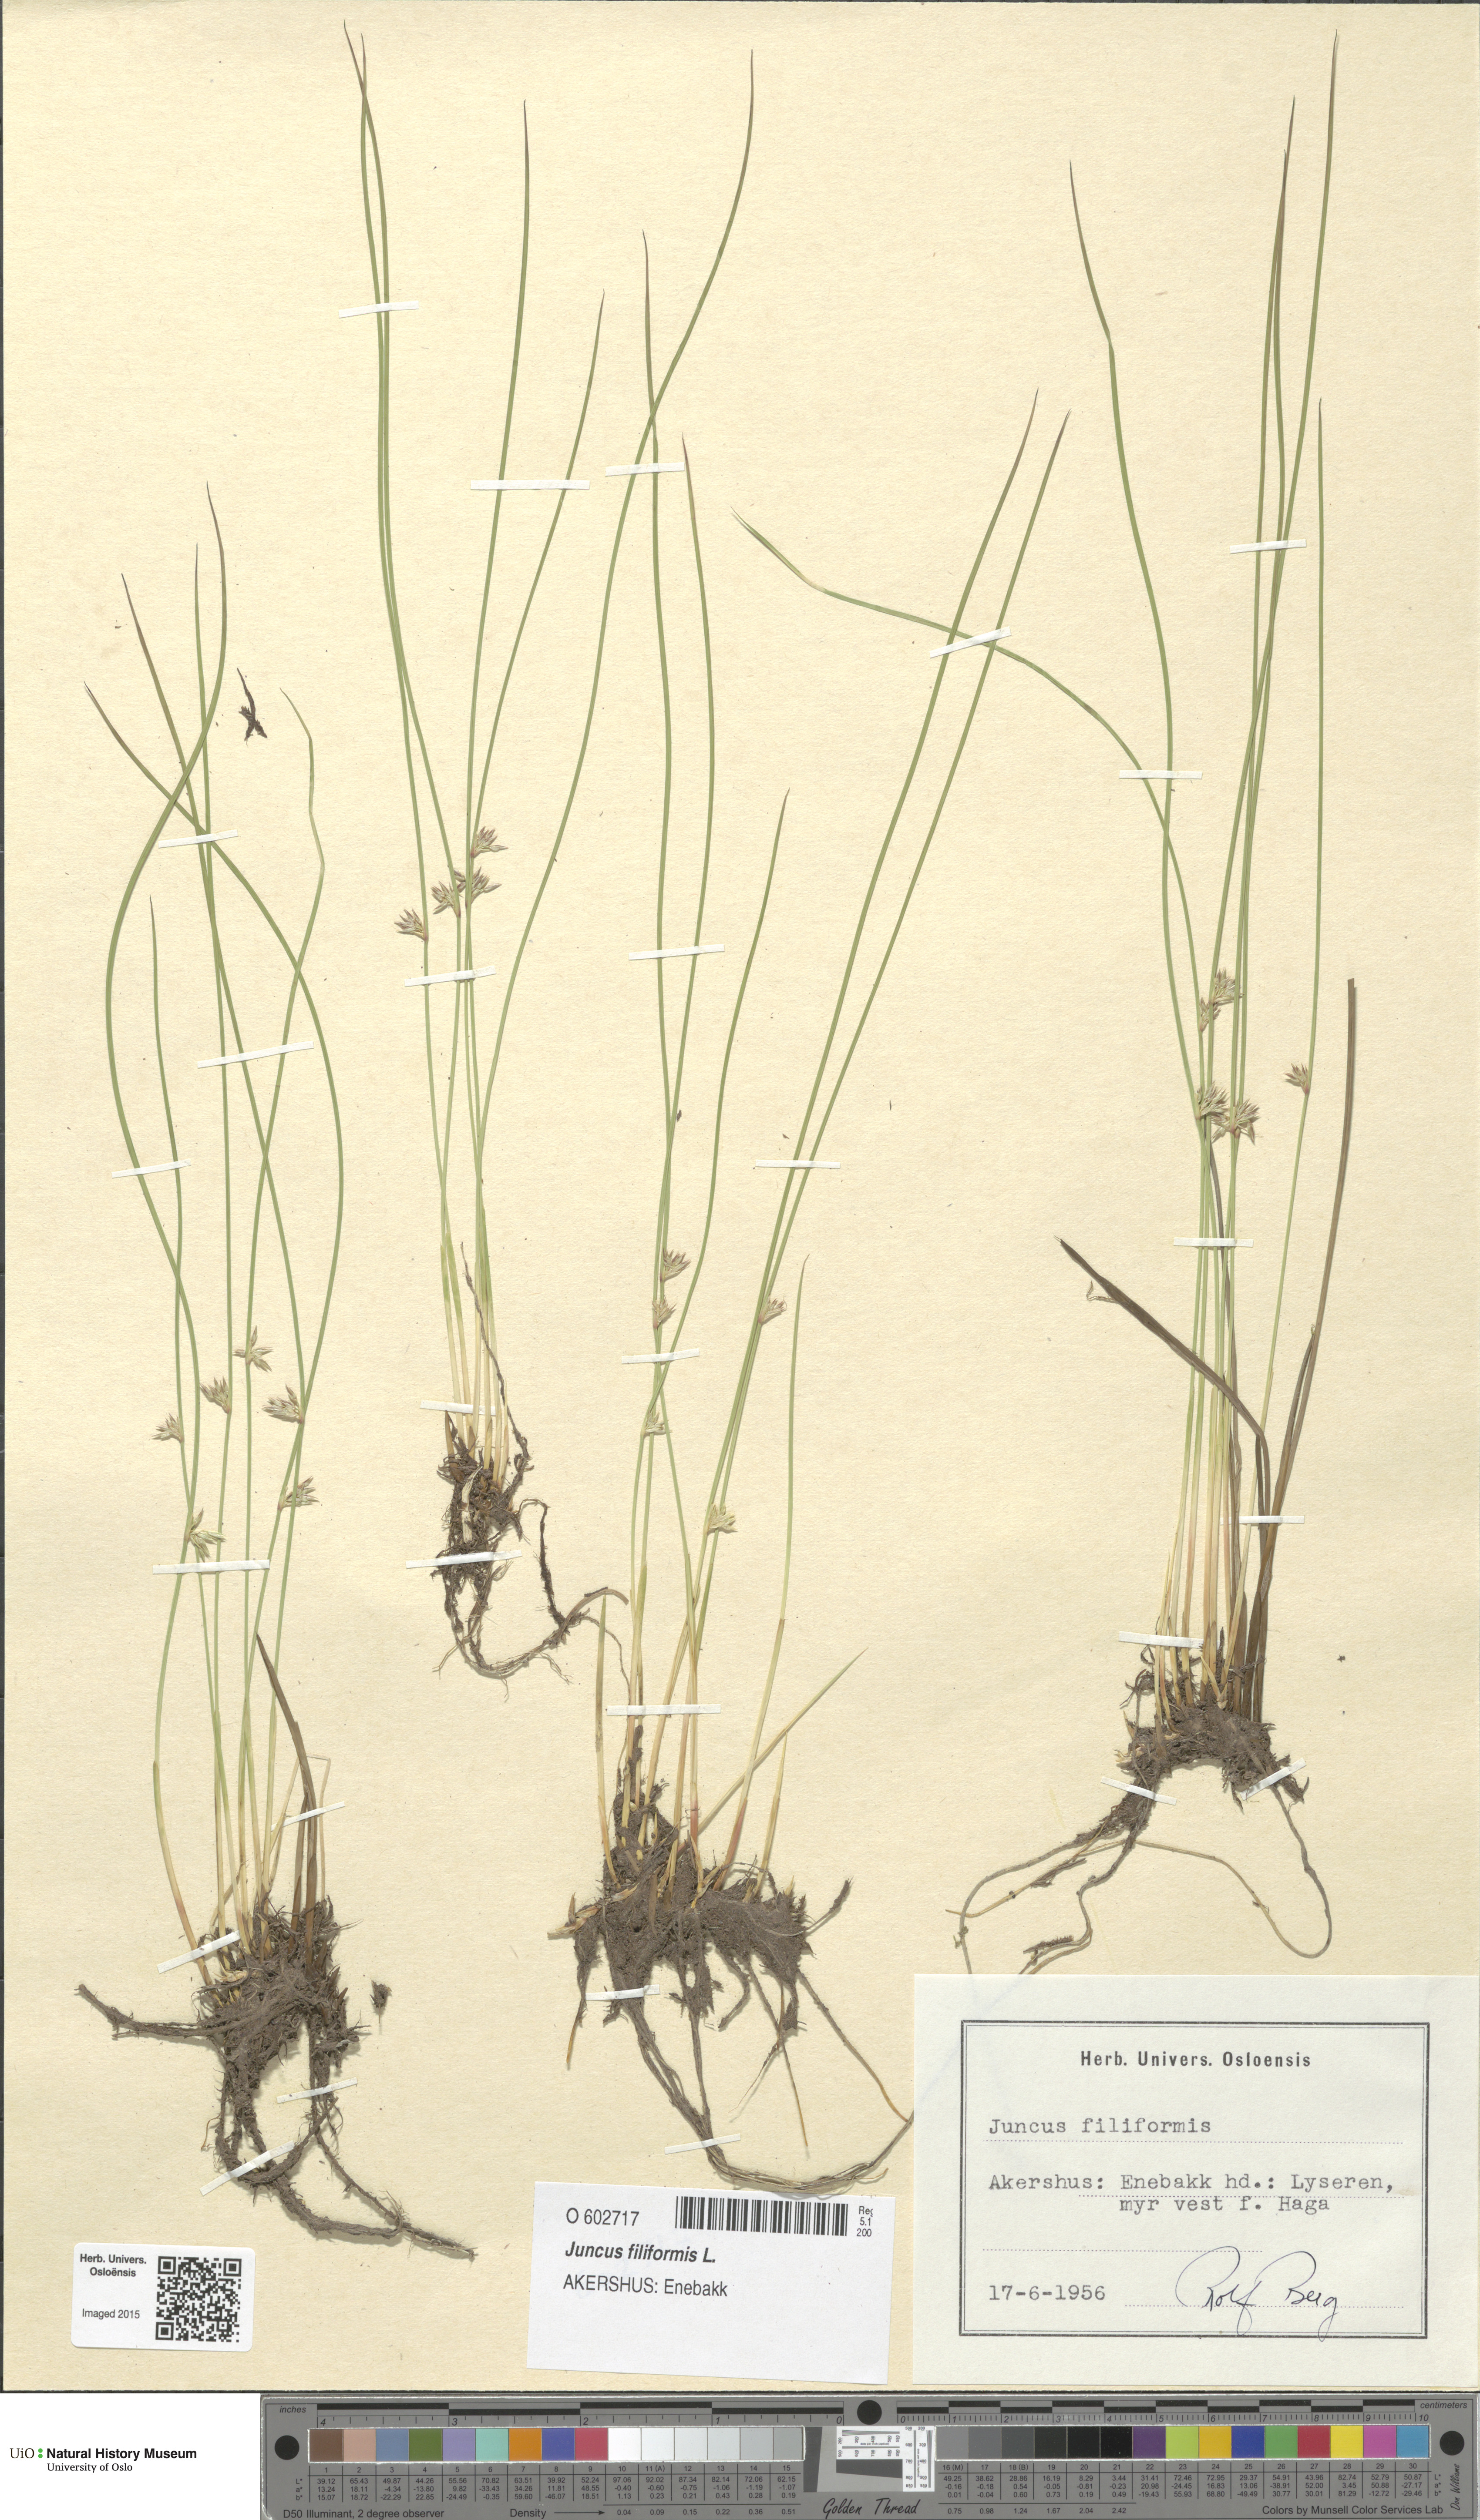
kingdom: Plantae
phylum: Tracheophyta
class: Liliopsida
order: Poales
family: Juncaceae
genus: Juncus
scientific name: Juncus filiformis
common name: Thread rush
